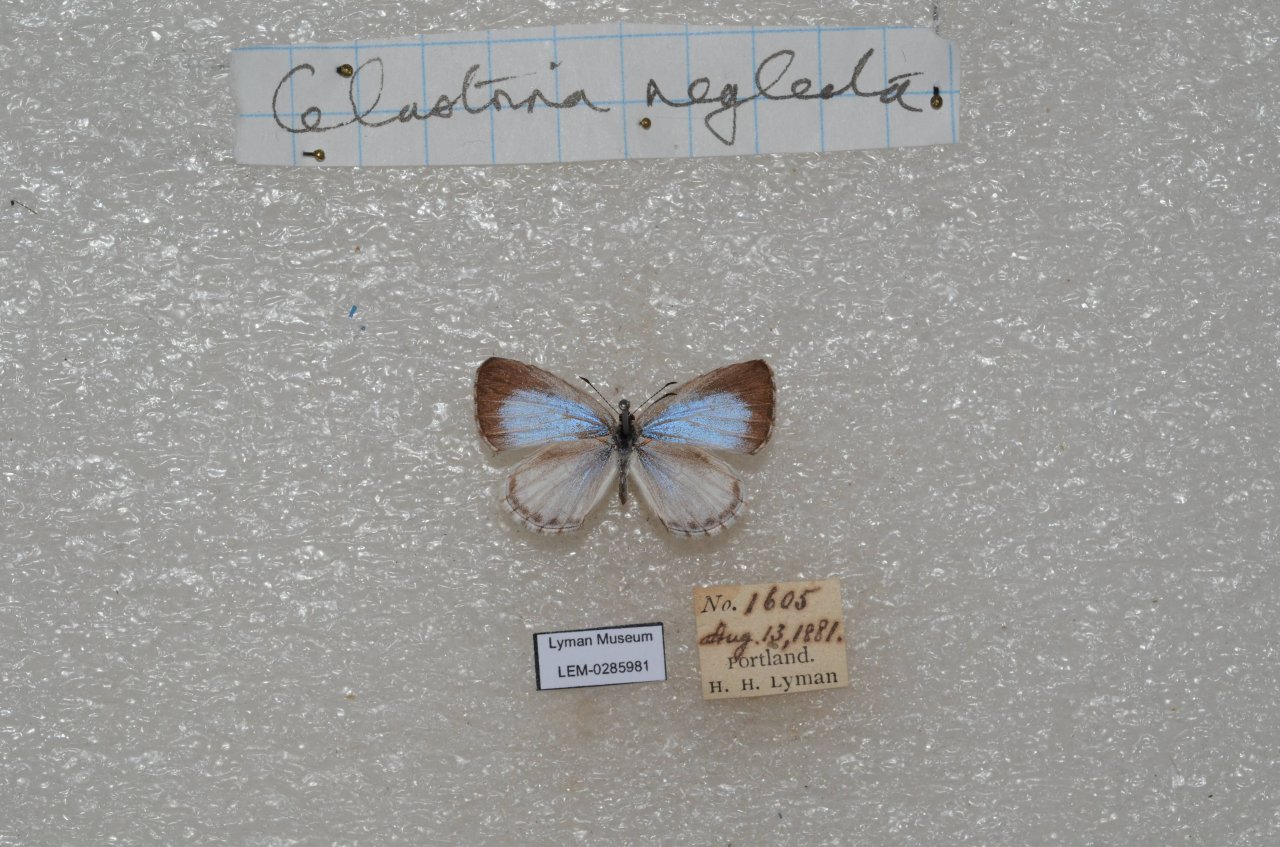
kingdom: Animalia
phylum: Arthropoda
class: Insecta
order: Lepidoptera
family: Lycaenidae
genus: Cyaniris
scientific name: Cyaniris neglecta
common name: Summer Azure
